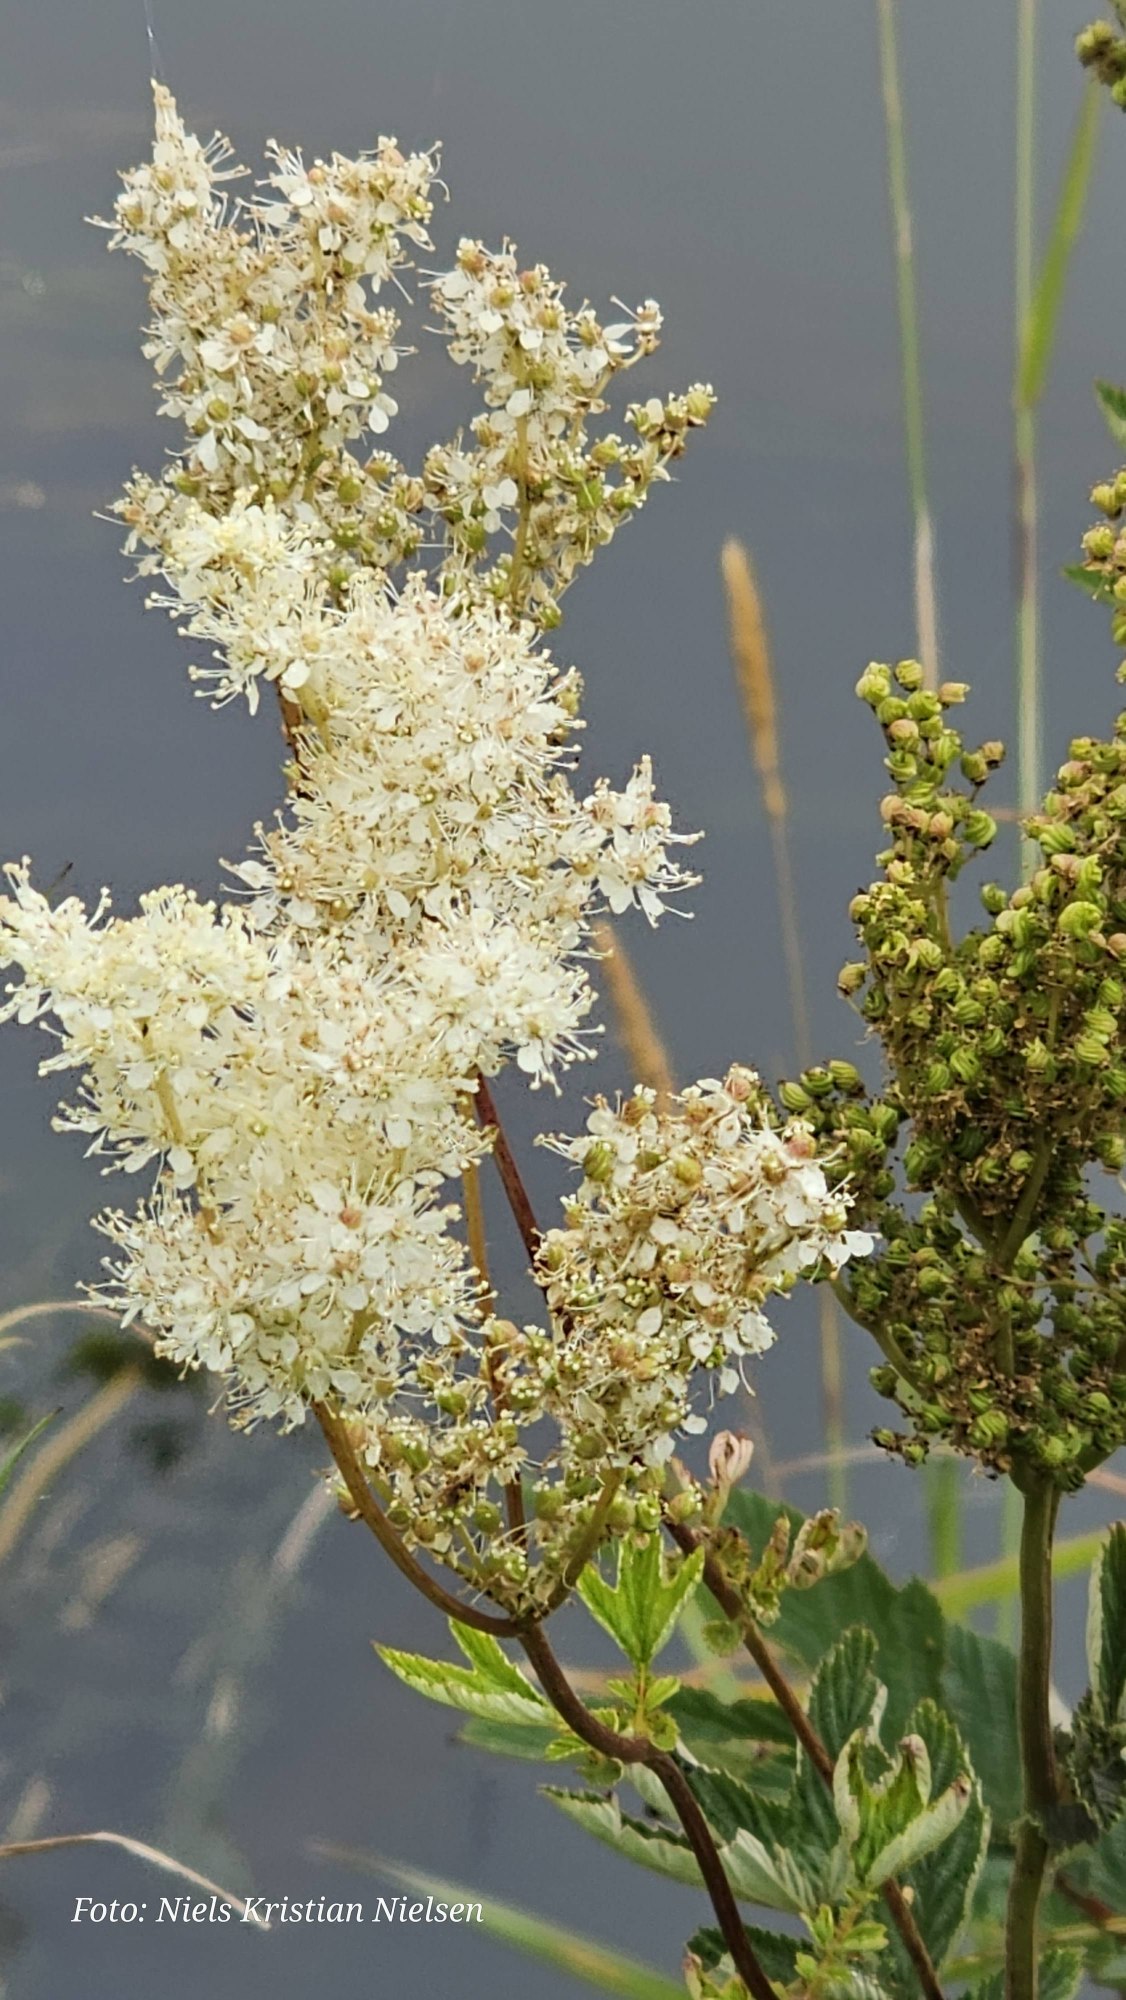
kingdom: Plantae
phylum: Tracheophyta
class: Magnoliopsida
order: Rosales
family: Rosaceae
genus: Filipendula
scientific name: Filipendula ulmaria
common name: Almindelig mjødurt
